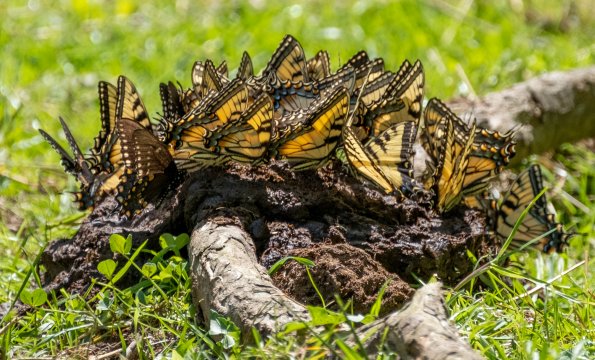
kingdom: Animalia
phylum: Arthropoda
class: Insecta
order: Lepidoptera
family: Papilionidae
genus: Pterourus
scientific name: Pterourus glaucus
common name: Eastern Tiger Swallowtail
